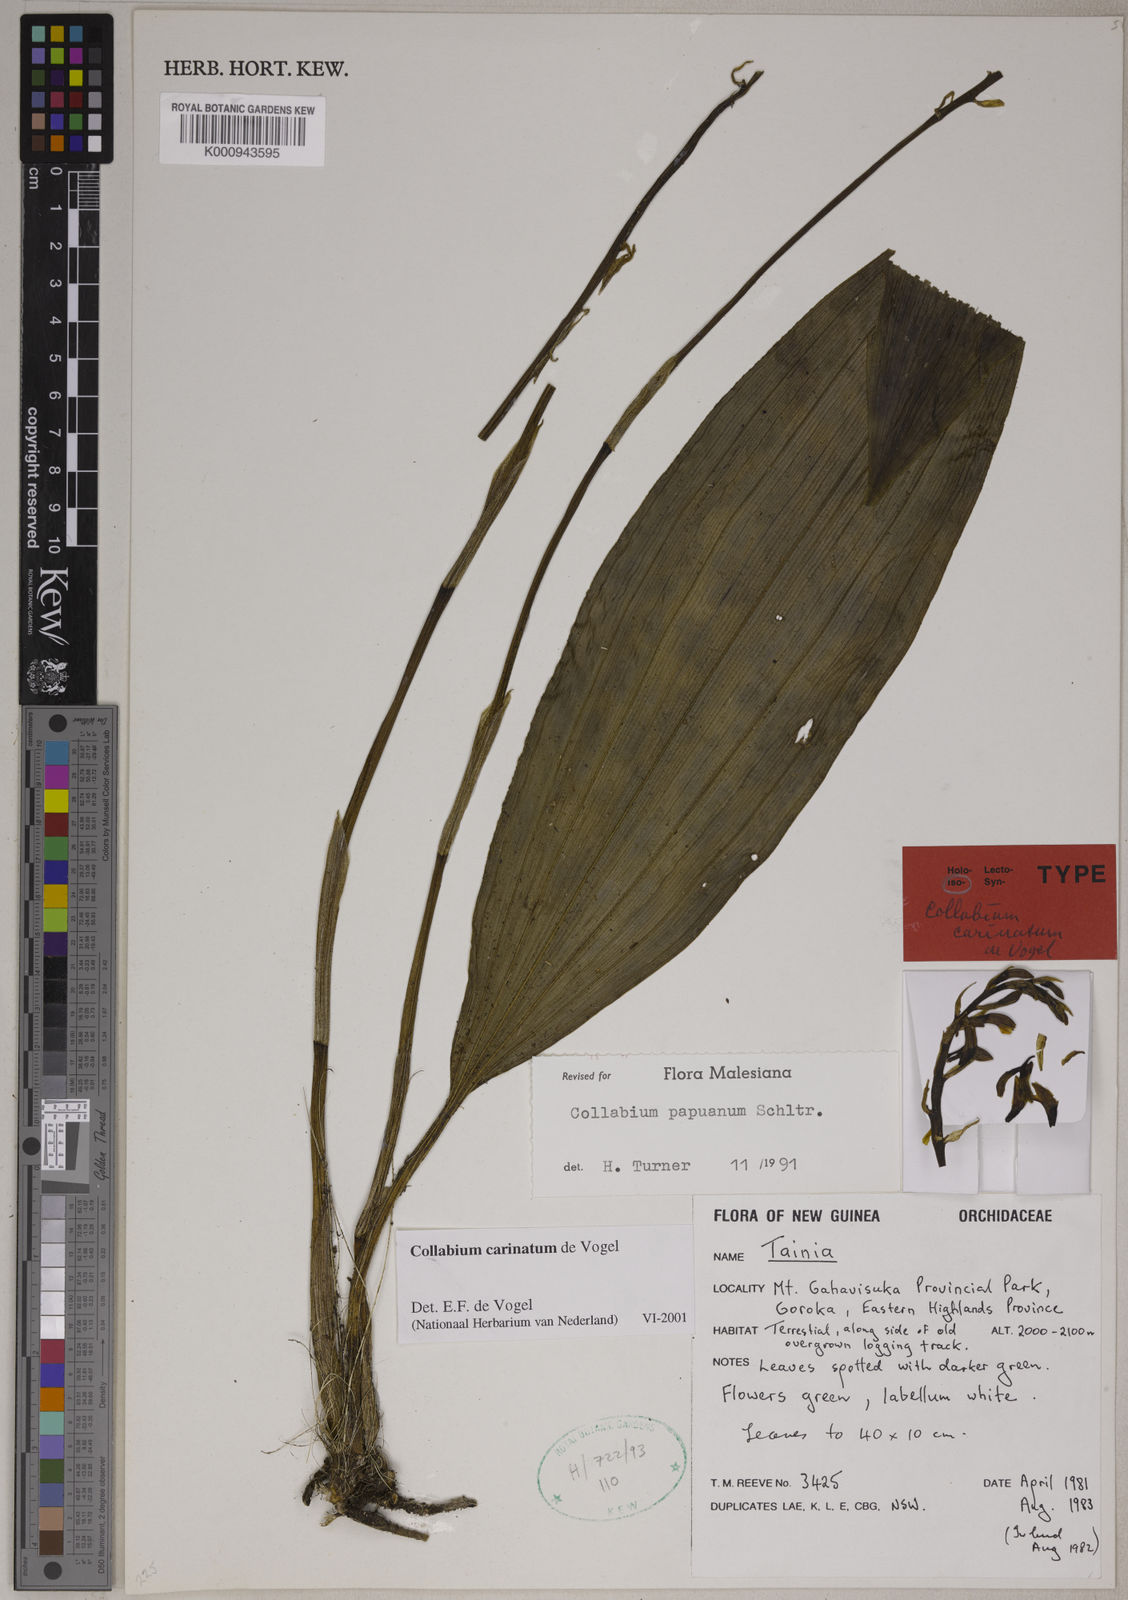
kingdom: Plantae
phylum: Tracheophyta
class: Liliopsida
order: Asparagales
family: Orchidaceae
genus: Collabium
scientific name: Collabium carinatum
